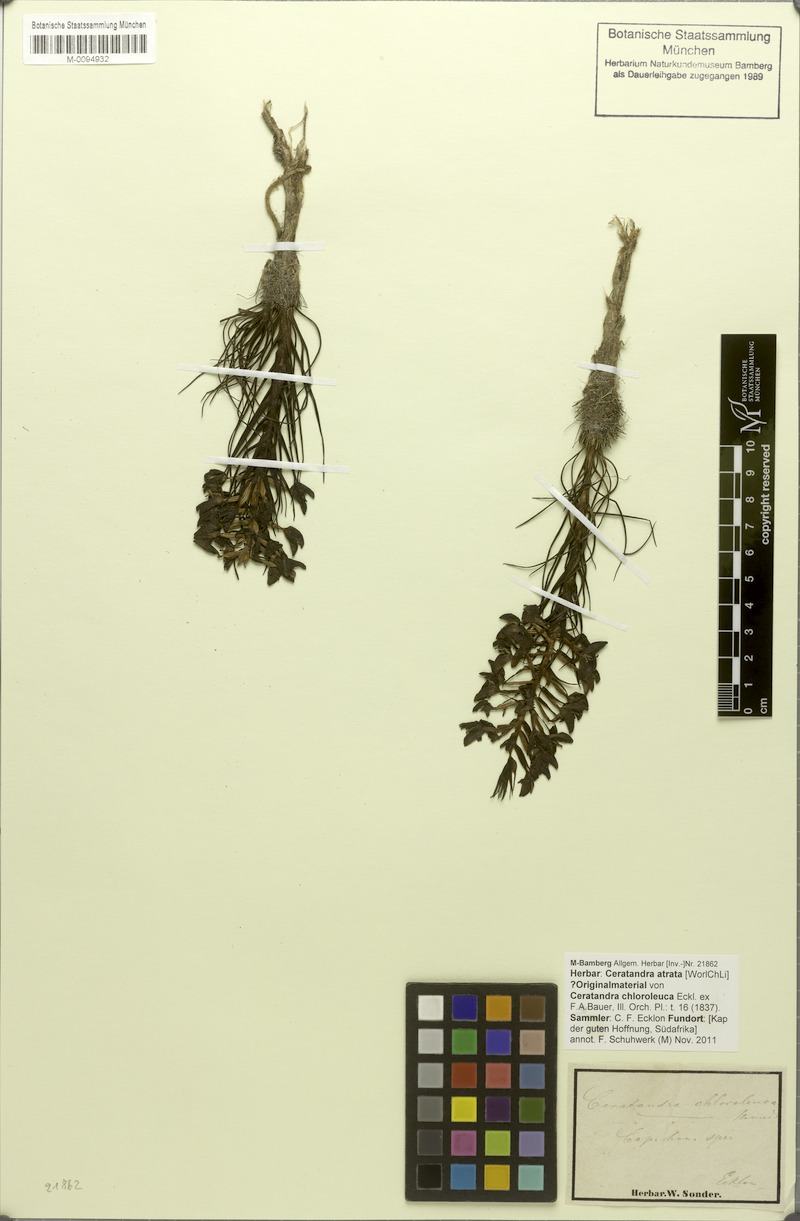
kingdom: Plantae
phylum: Tracheophyta
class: Liliopsida
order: Asparagales
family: Orchidaceae
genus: Ceratandra
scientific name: Ceratandra atrata
